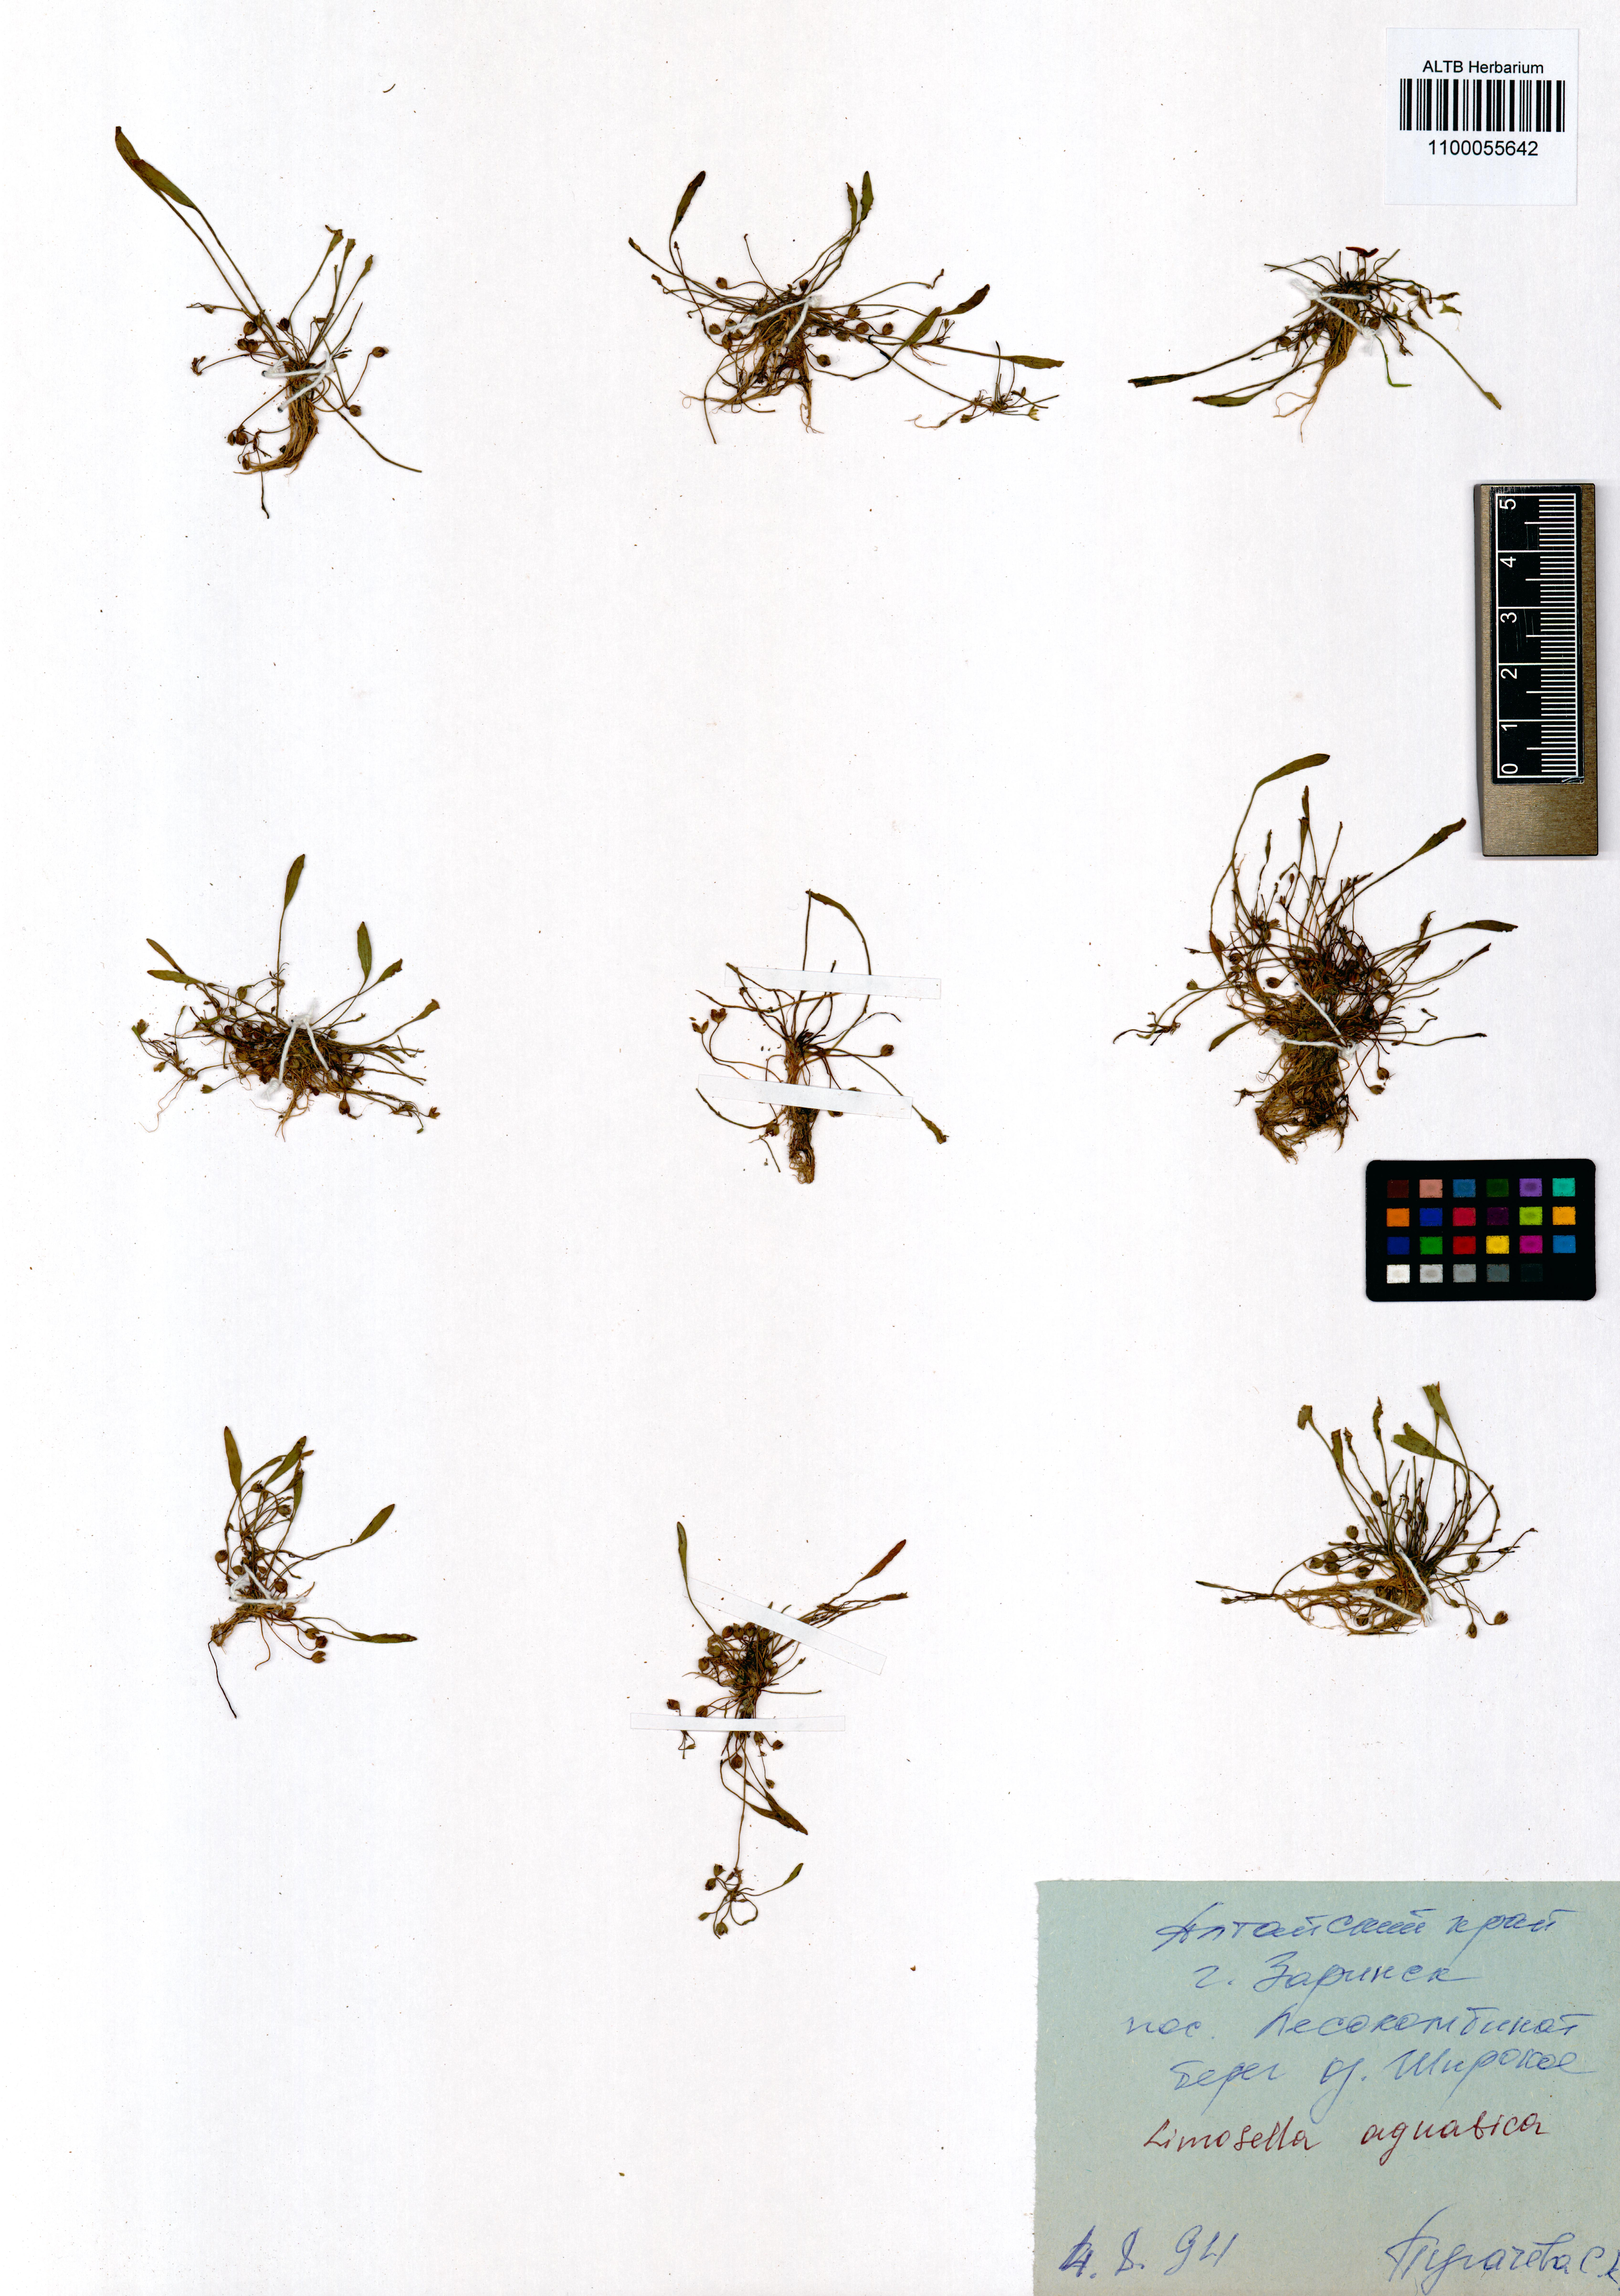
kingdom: Plantae
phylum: Tracheophyta
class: Magnoliopsida
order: Lamiales
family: Scrophulariaceae
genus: Limosella
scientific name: Limosella aquatica
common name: Mudwort
